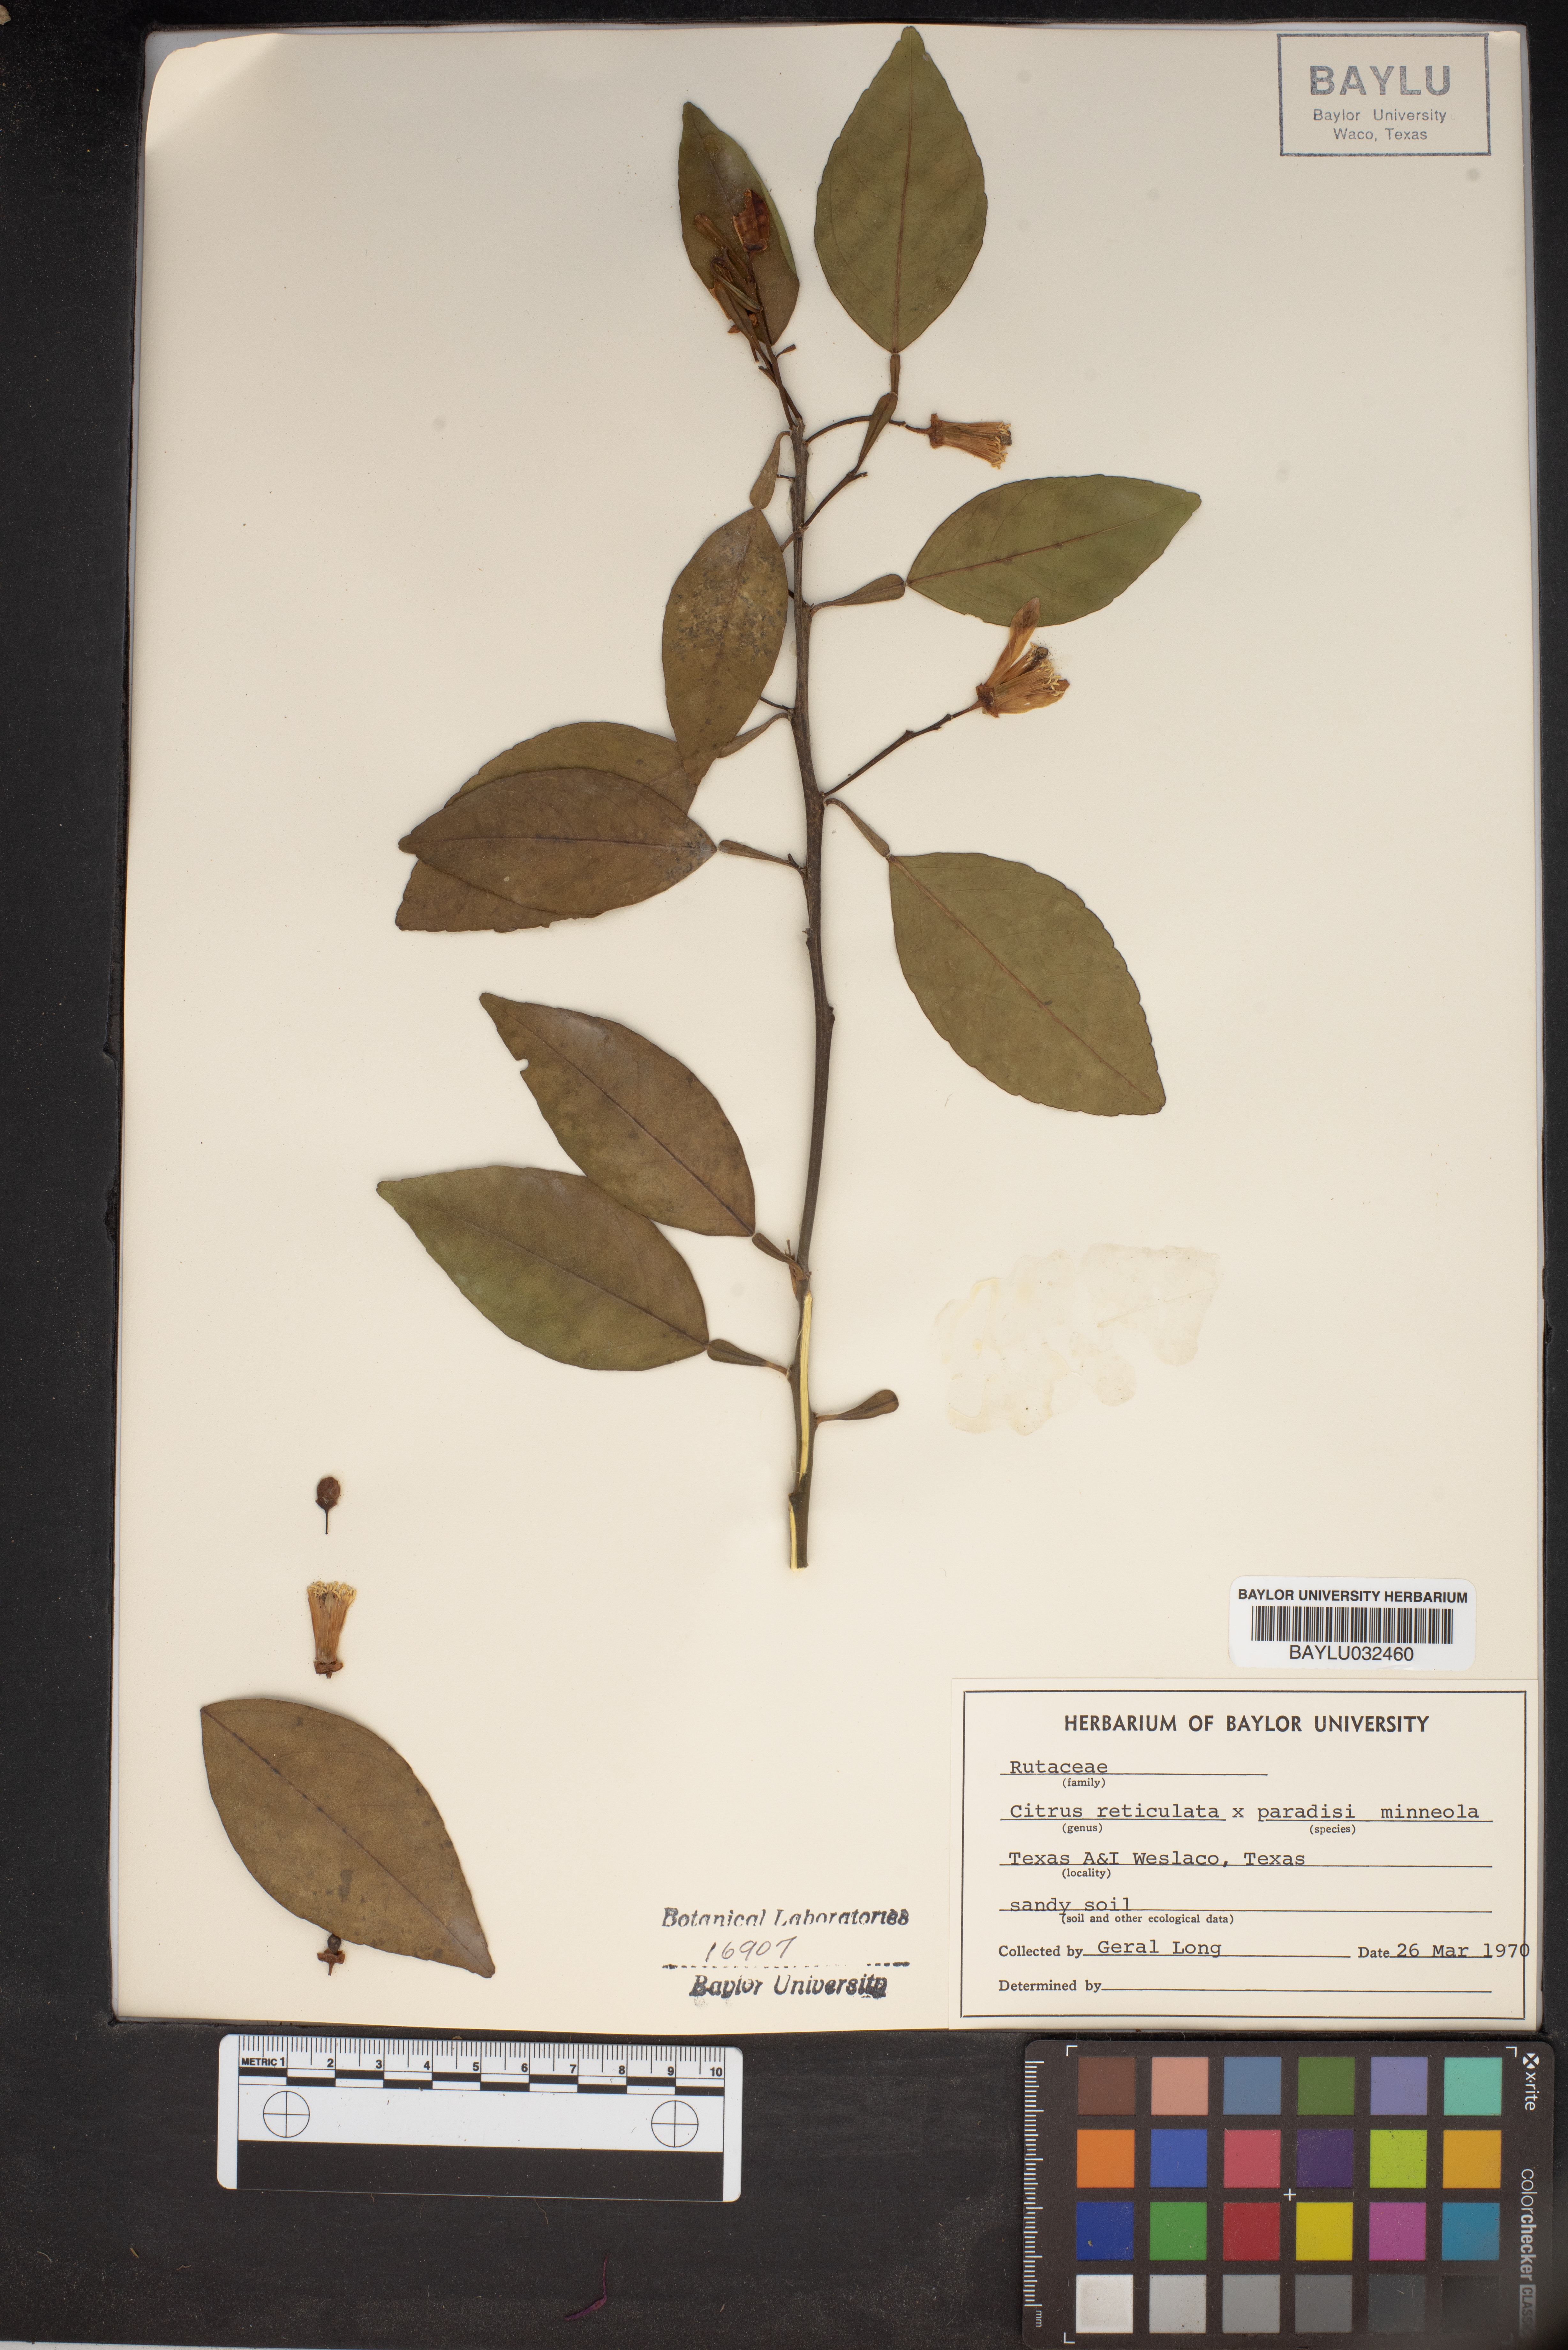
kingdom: Plantae
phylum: Tracheophyta
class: Magnoliopsida
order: Sapindales
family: Rutaceae
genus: Citrus
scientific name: Citrus reticulata
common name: Tangerine
